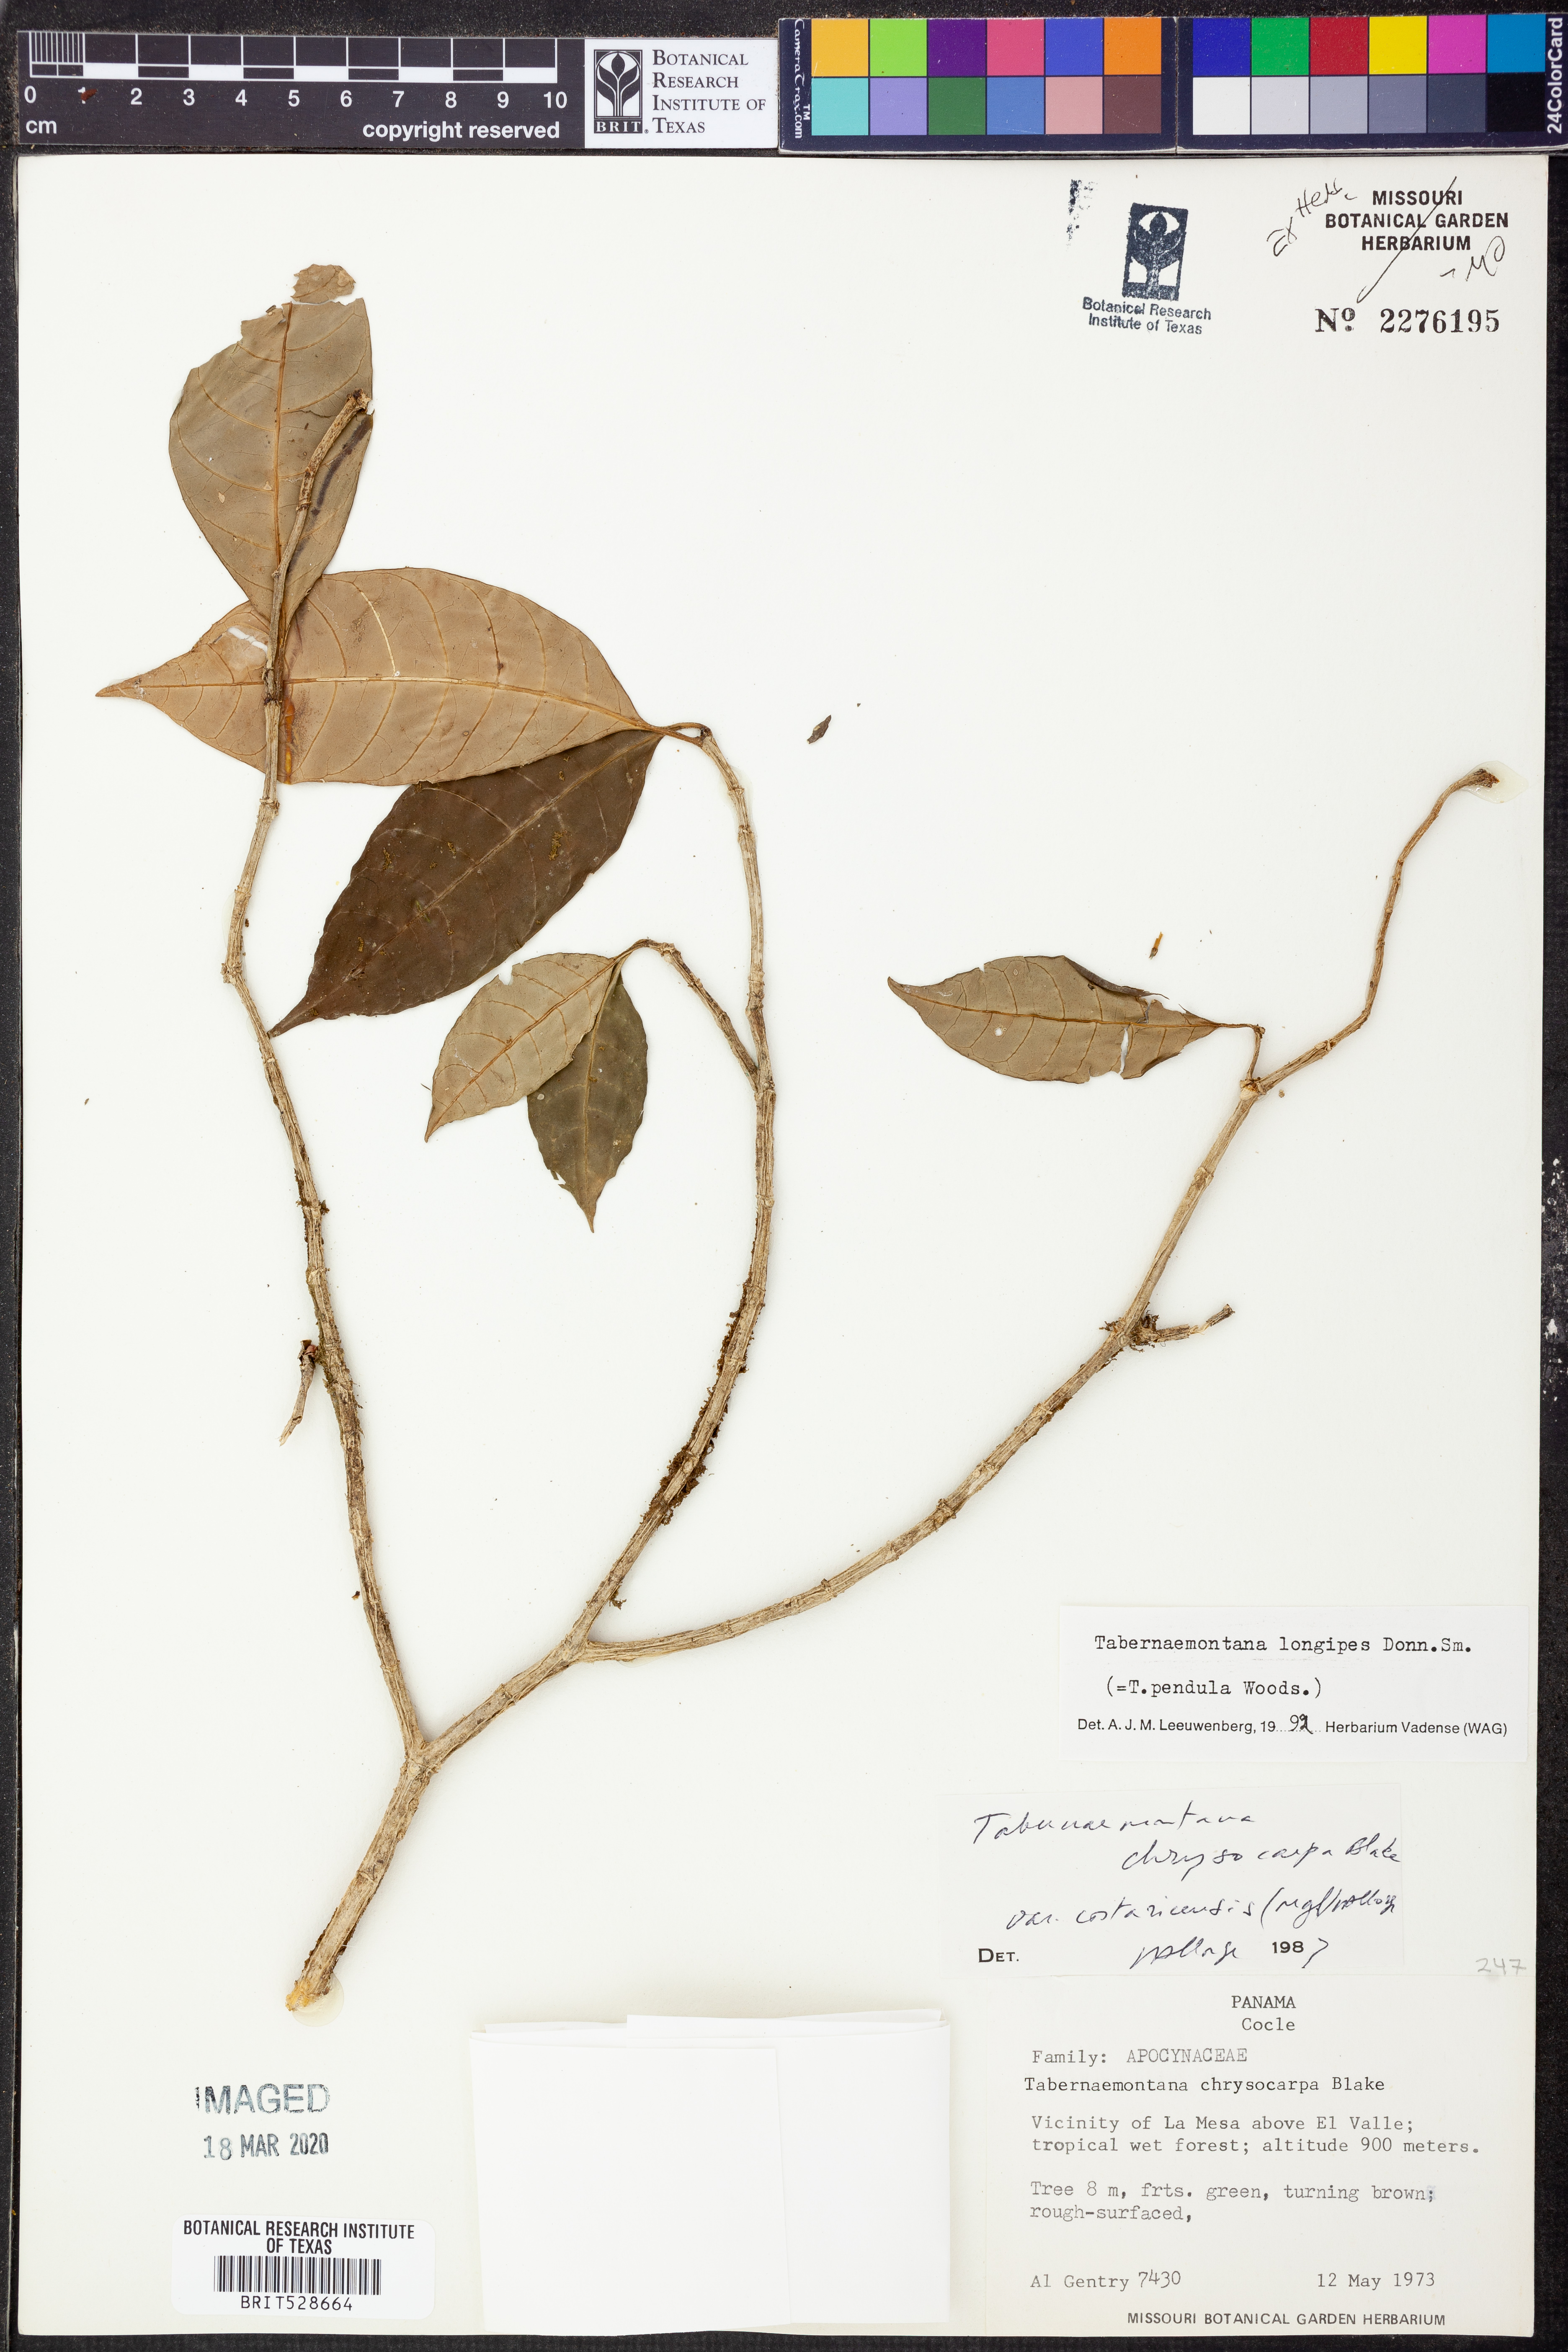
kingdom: Plantae
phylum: Tracheophyta
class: Magnoliopsida
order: Gentianales
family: Apocynaceae
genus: Tabernaemontana
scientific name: Tabernaemontana longipes
